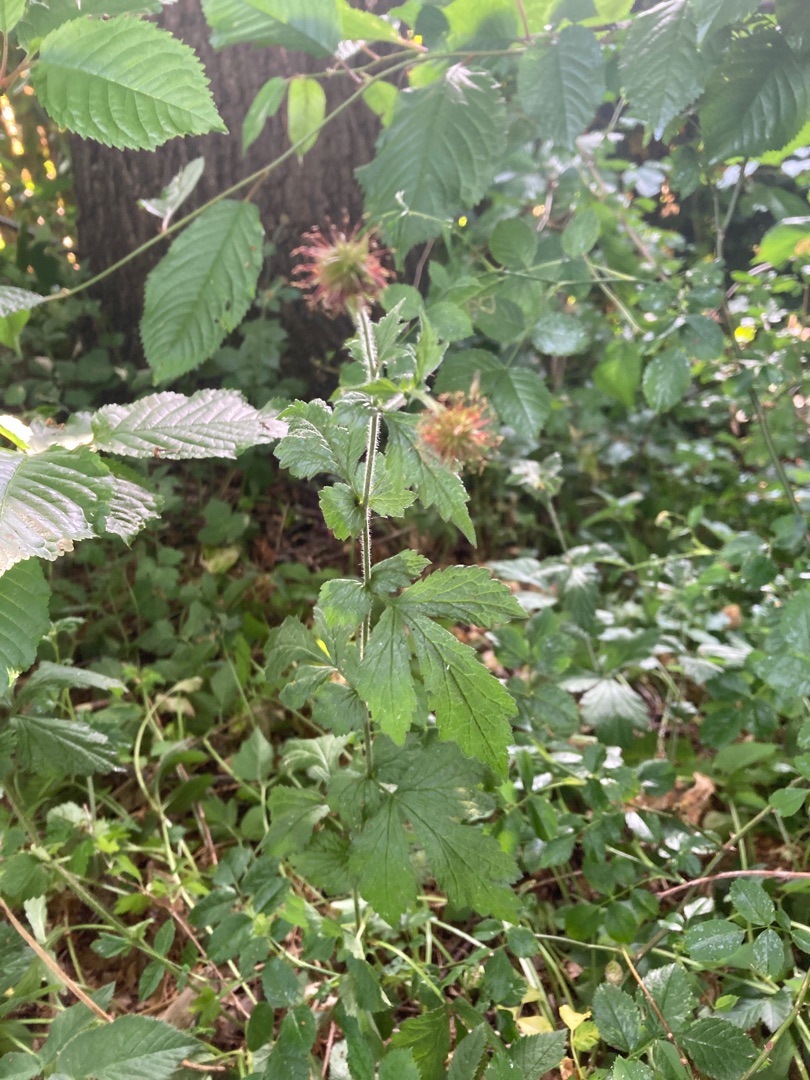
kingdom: Plantae
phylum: Tracheophyta
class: Magnoliopsida
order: Rosales
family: Rosaceae
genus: Geum
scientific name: Geum urbanum
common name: Feber-nellikerod
